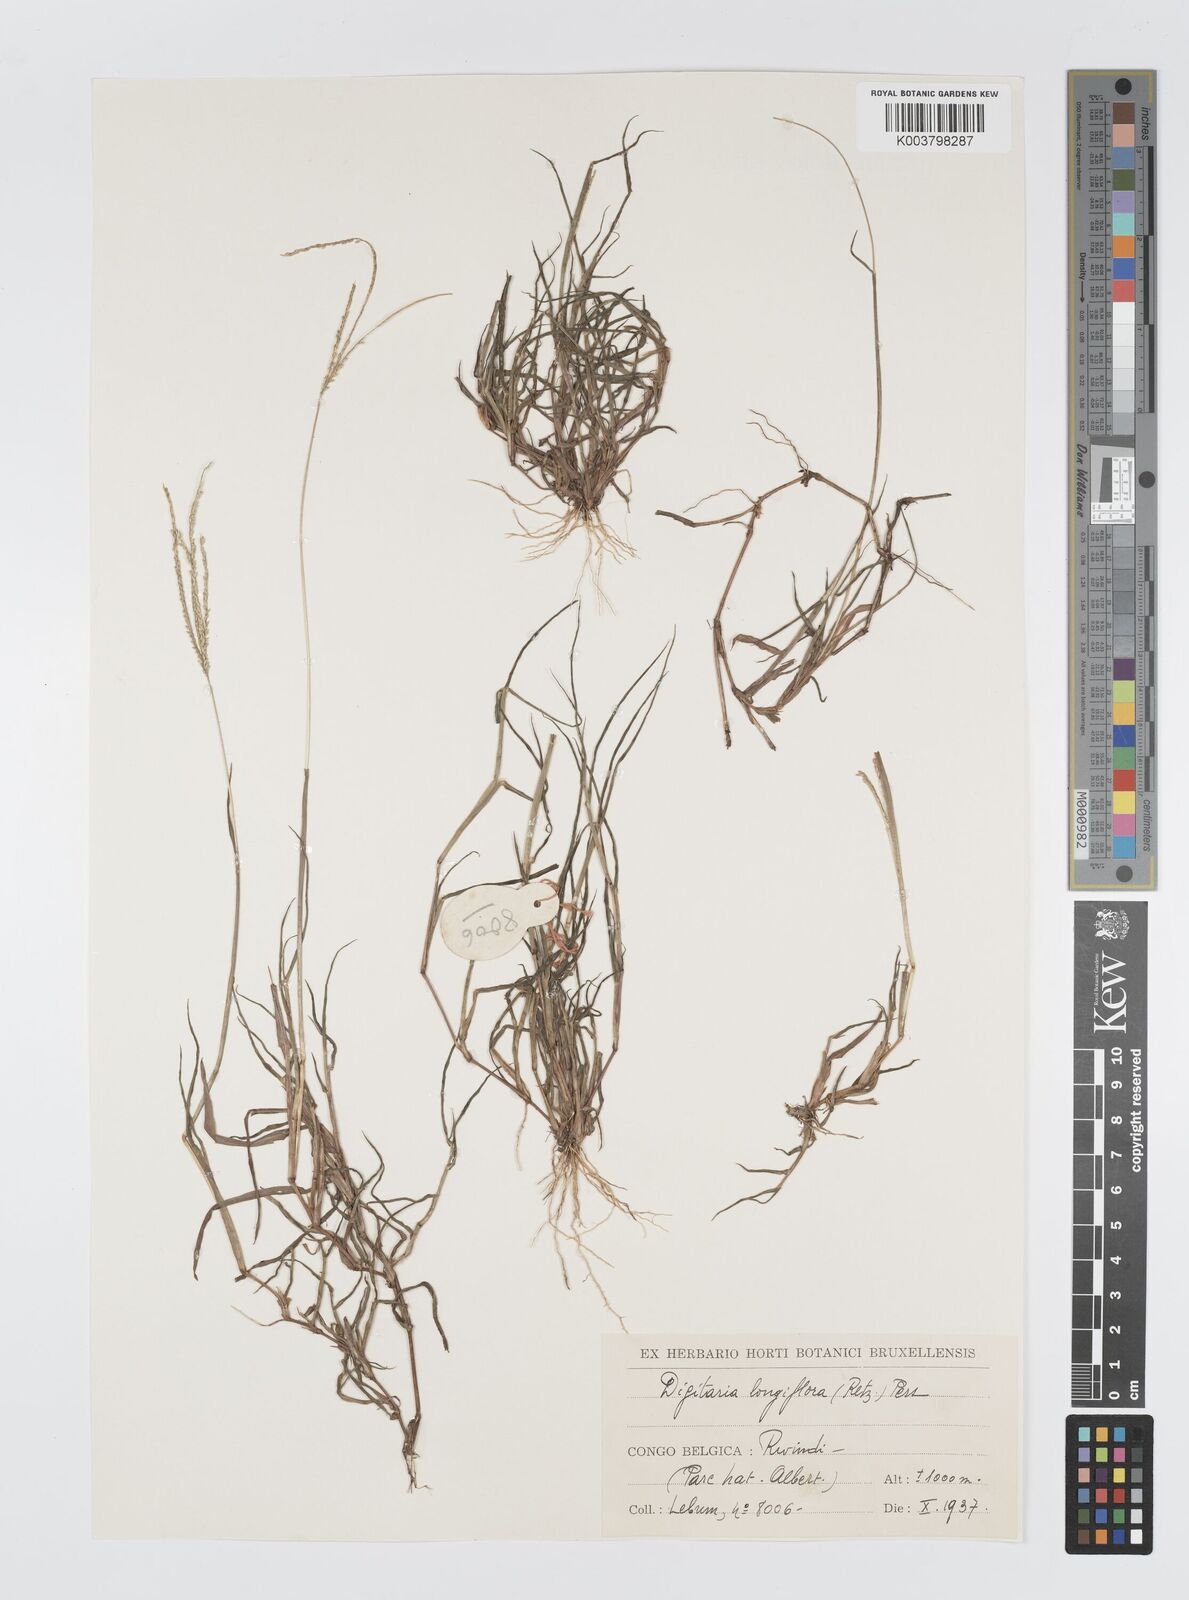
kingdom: Plantae
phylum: Tracheophyta
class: Liliopsida
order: Poales
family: Poaceae
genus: Digitaria
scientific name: Digitaria longiflora
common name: Wire crabgrass
